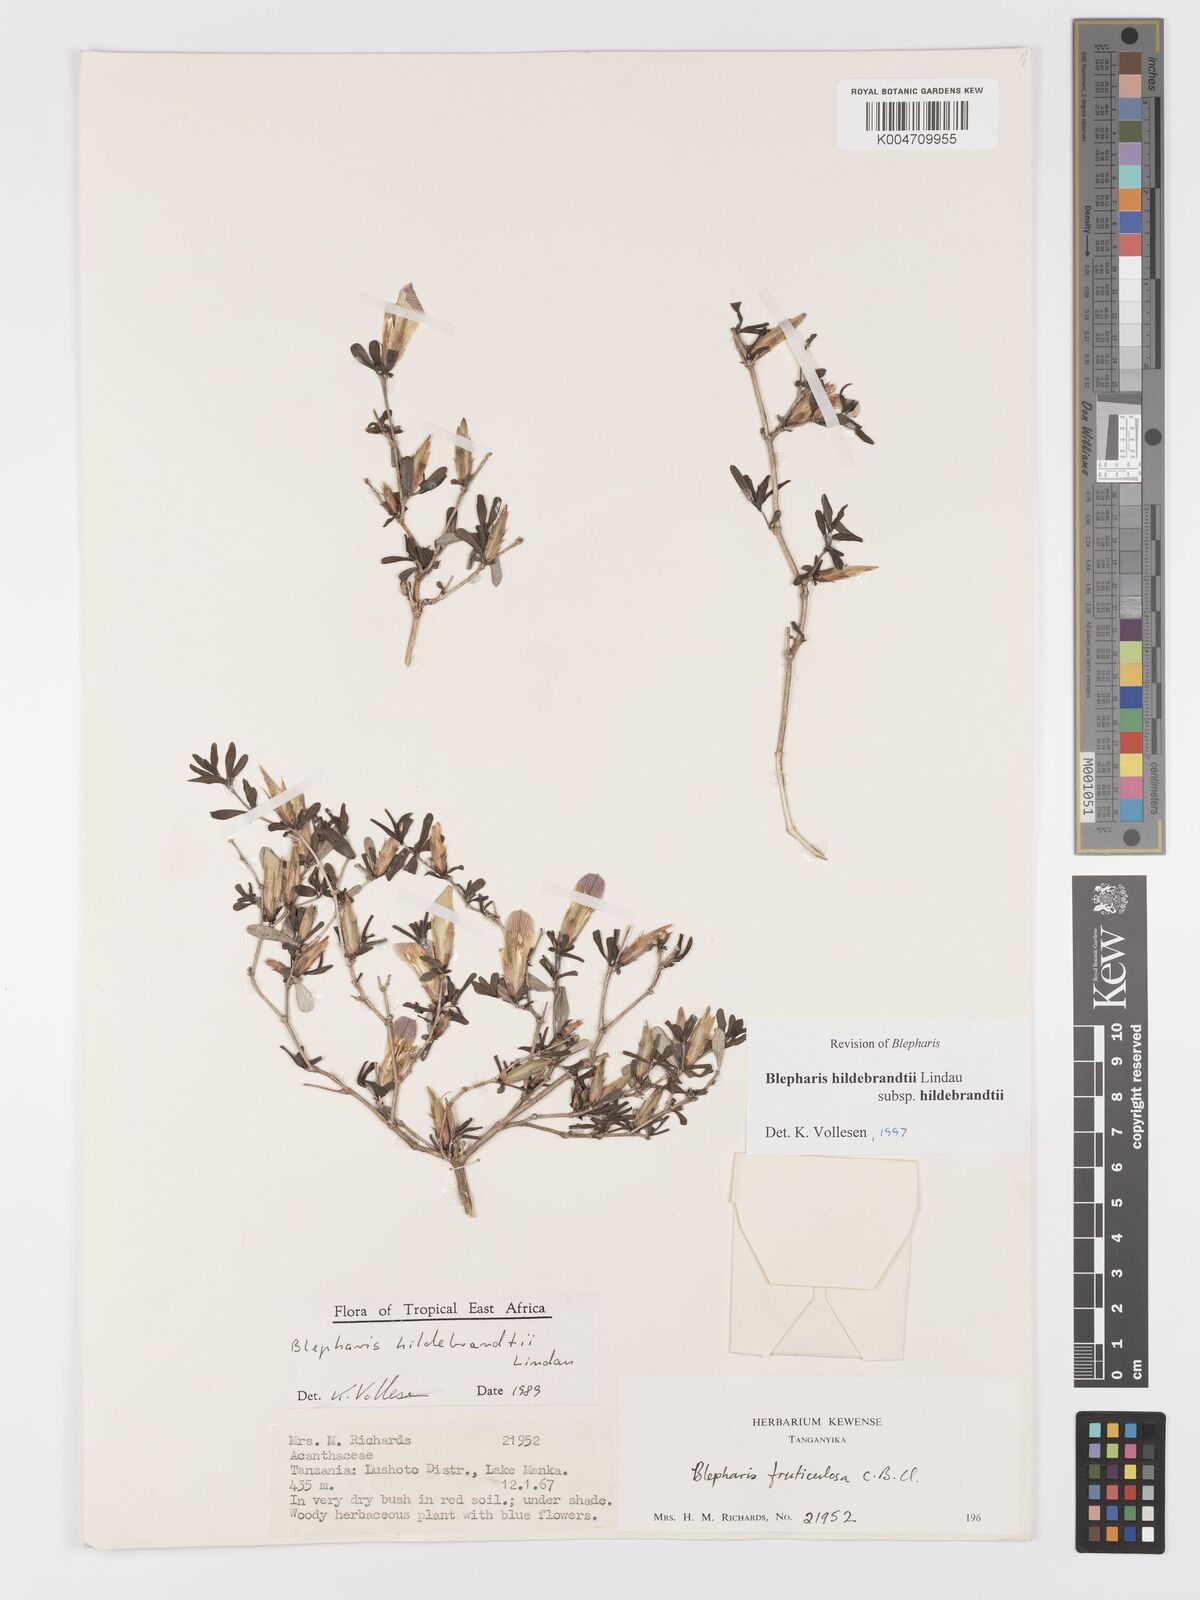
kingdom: Plantae
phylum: Tracheophyta
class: Magnoliopsida
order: Lamiales
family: Acanthaceae
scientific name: Acanthaceae
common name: Acanthaceae
